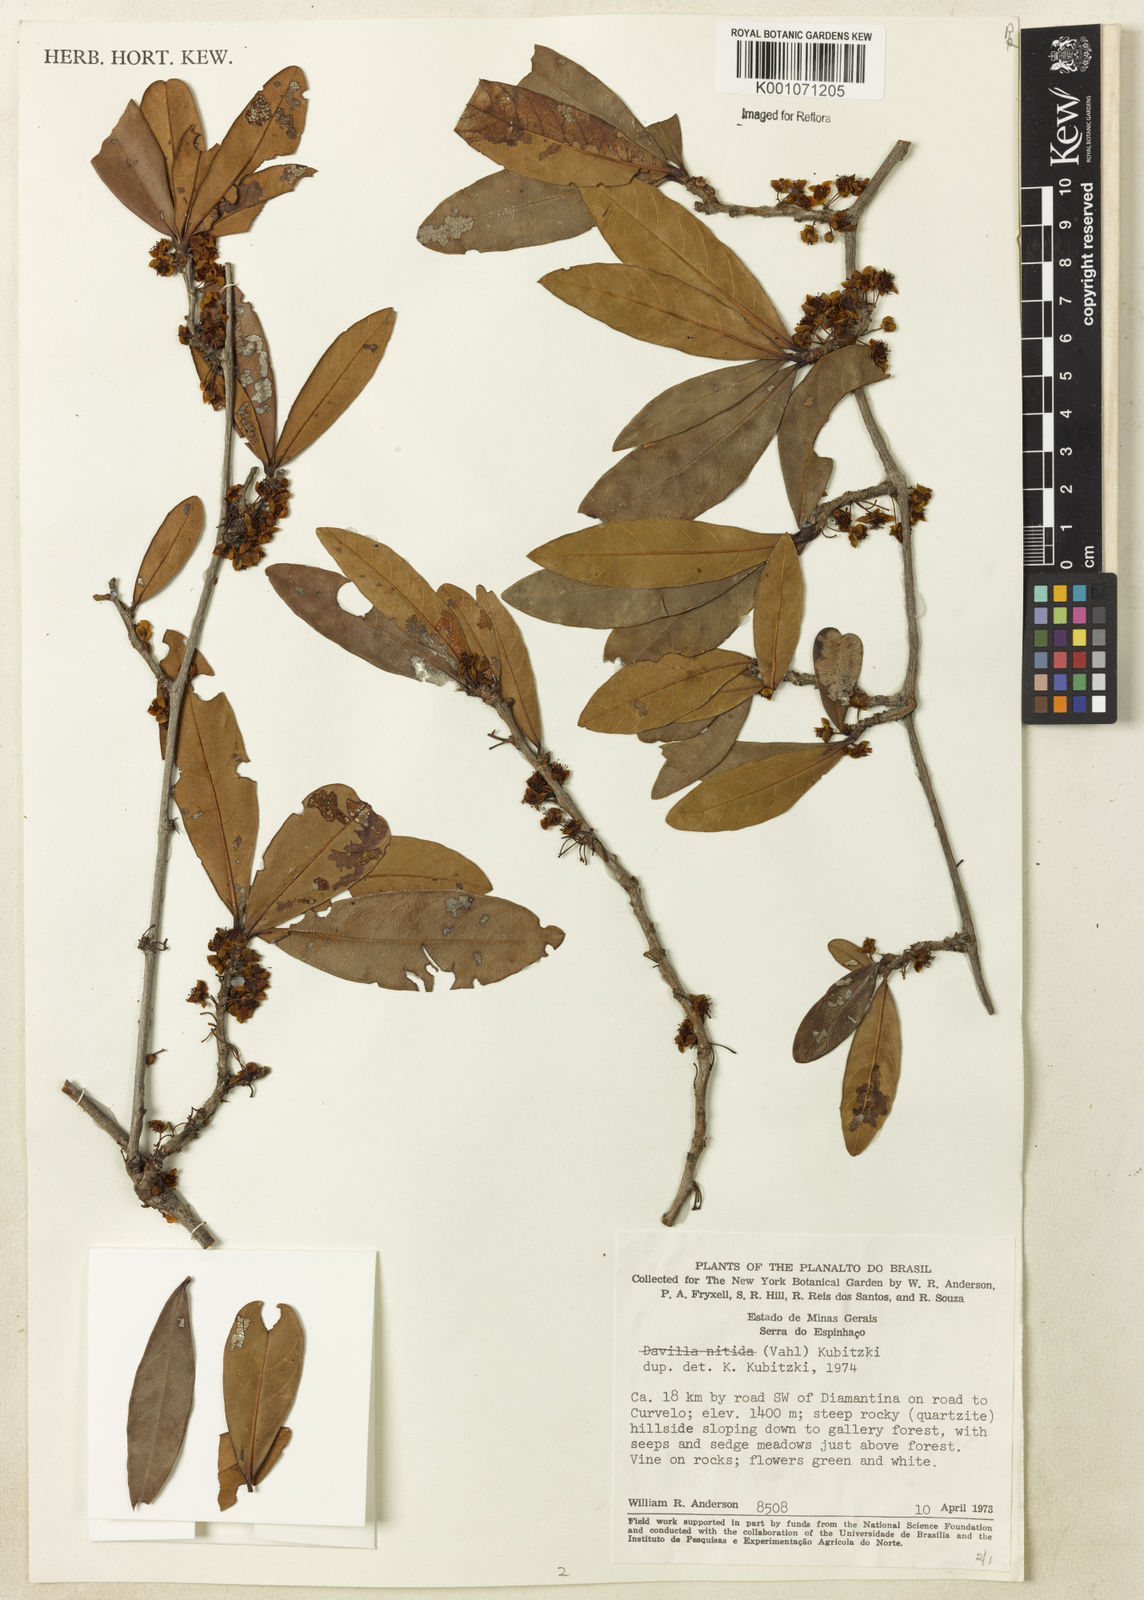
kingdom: Plantae
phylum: Tracheophyta
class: Magnoliopsida
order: Dilleniales
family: Dilleniaceae
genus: Doliocarpus
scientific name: Doliocarpus elegans
